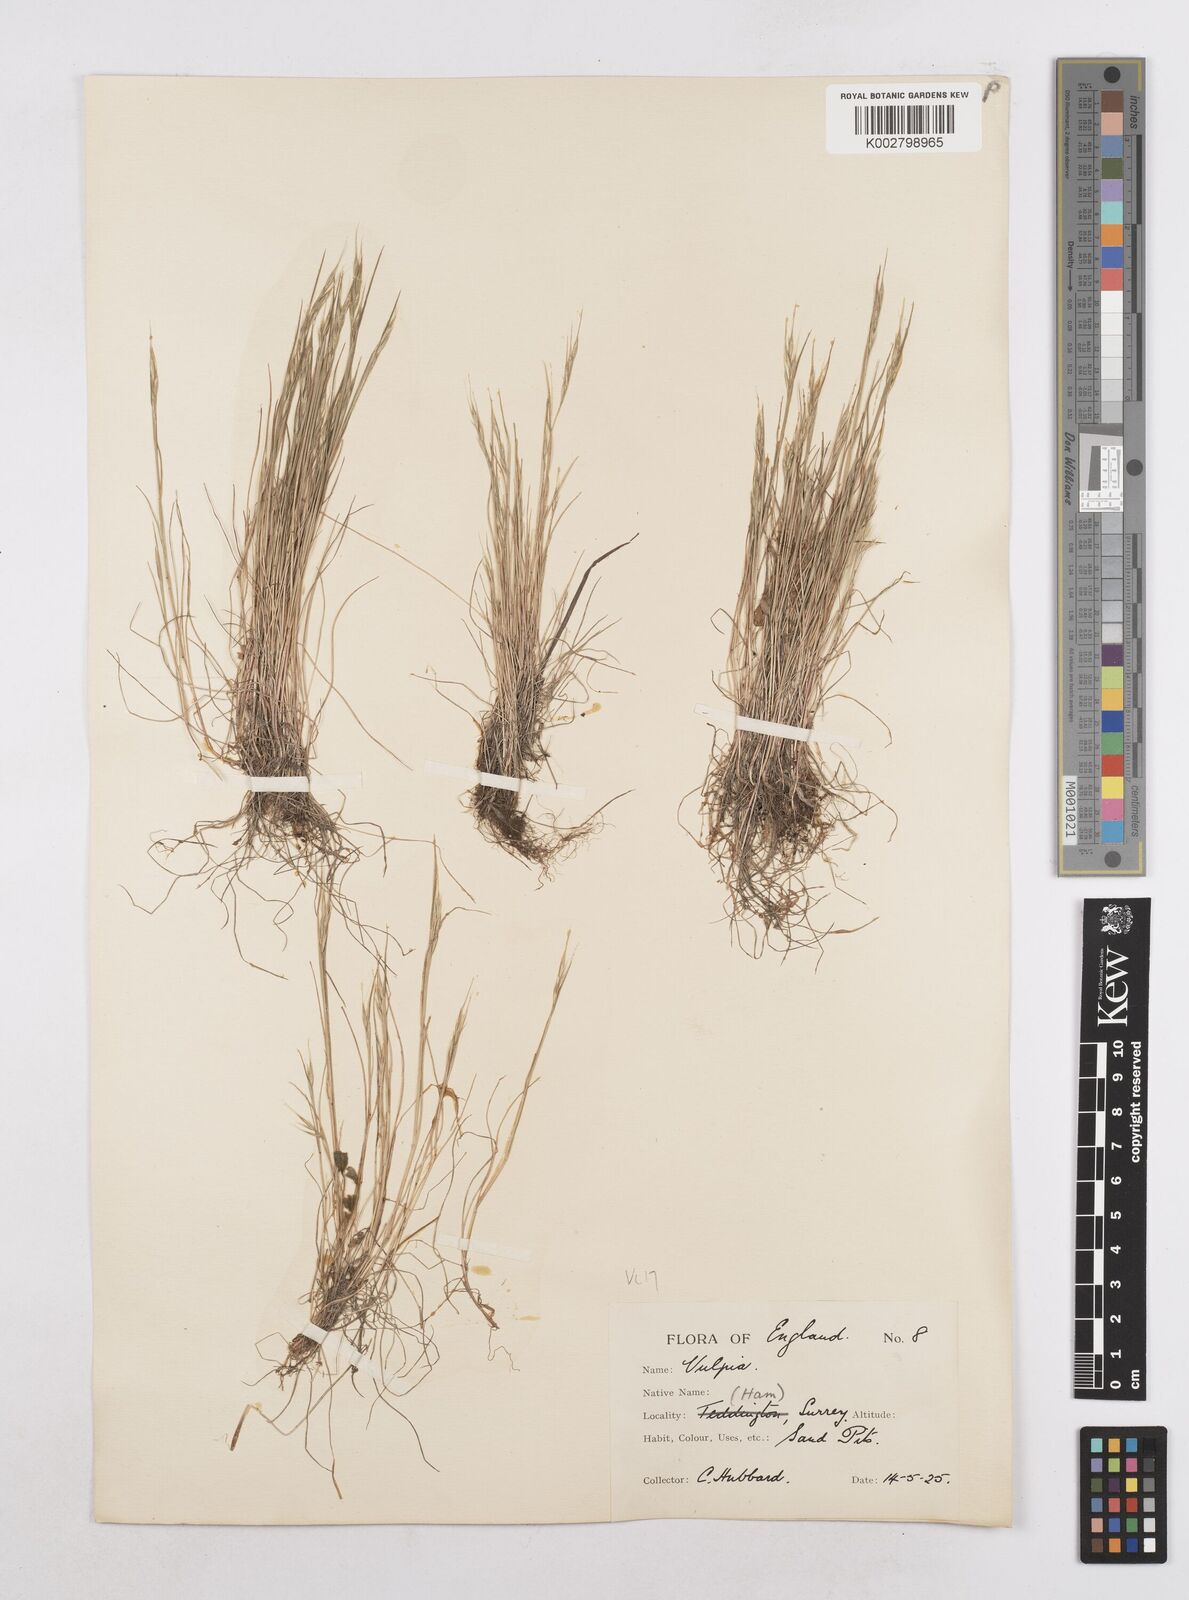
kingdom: Plantae
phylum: Tracheophyta
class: Liliopsida
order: Poales
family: Poaceae
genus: Festuca
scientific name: Festuca bromoides
